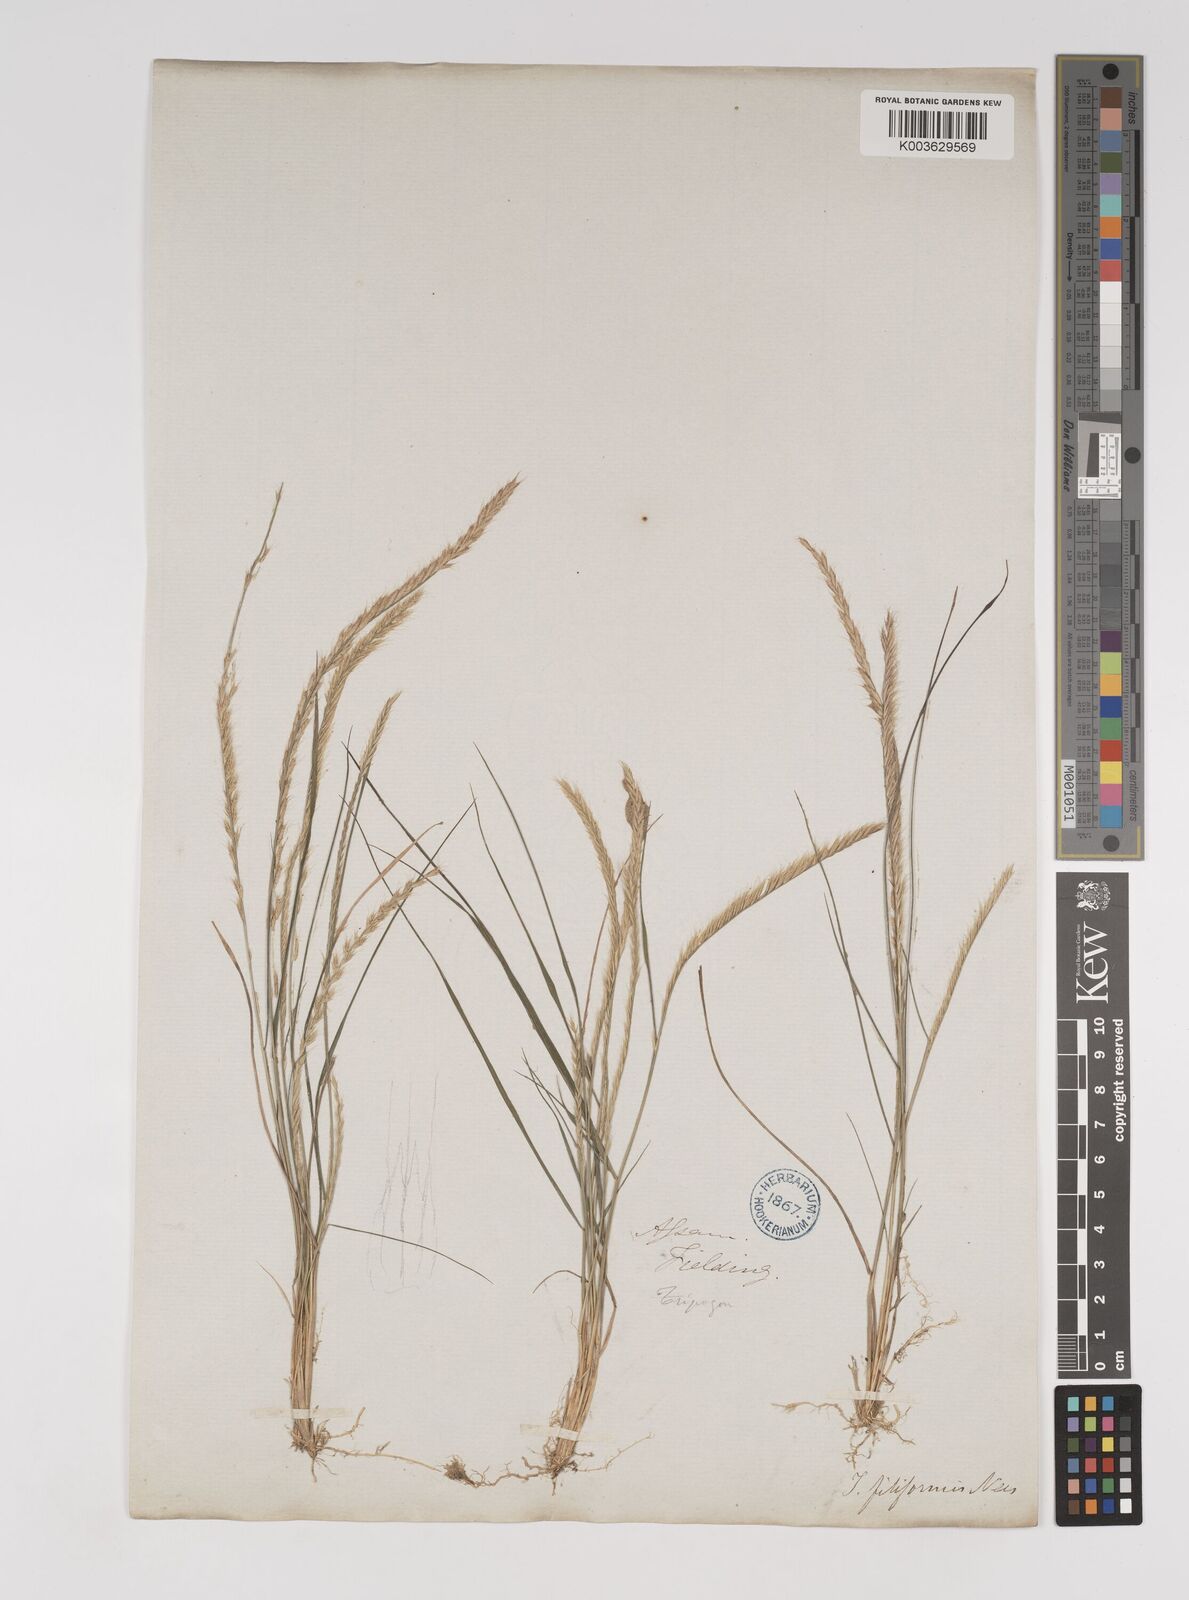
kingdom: Plantae
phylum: Tracheophyta
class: Liliopsida
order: Poales
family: Poaceae
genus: Tripogon
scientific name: Tripogon filiformis
